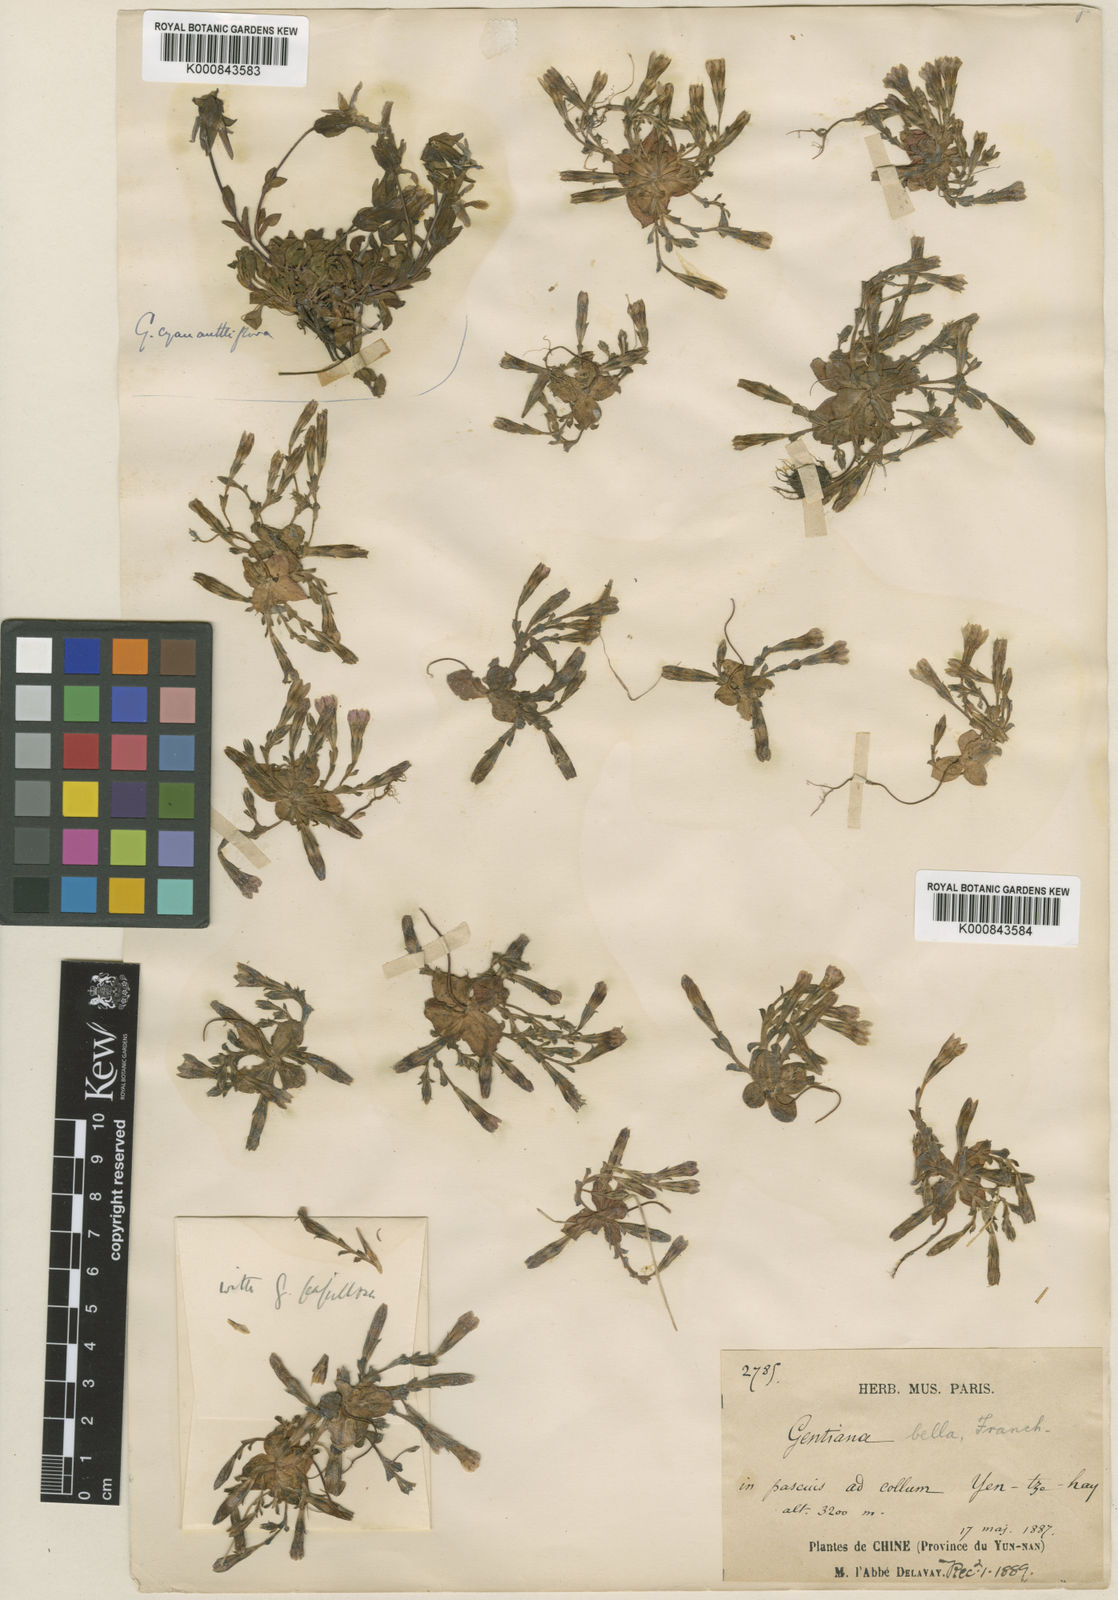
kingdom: Plantae
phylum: Tracheophyta
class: Magnoliopsida
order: Gentianales
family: Gentianaceae
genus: Gentiana
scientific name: Gentiana bella
